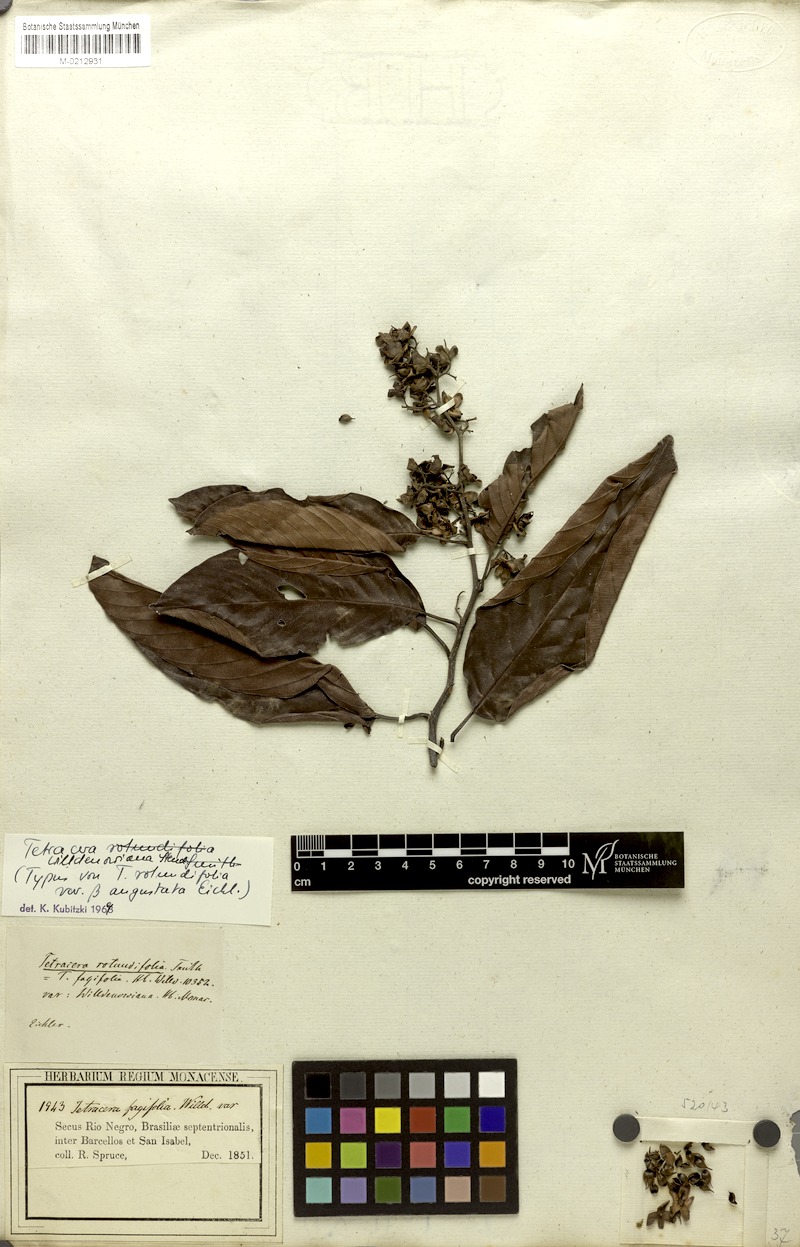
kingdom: Plantae
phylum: Tracheophyta
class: Magnoliopsida
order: Dilleniales
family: Dilleniaceae
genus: Tetracera
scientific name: Tetracera willdenowiana
